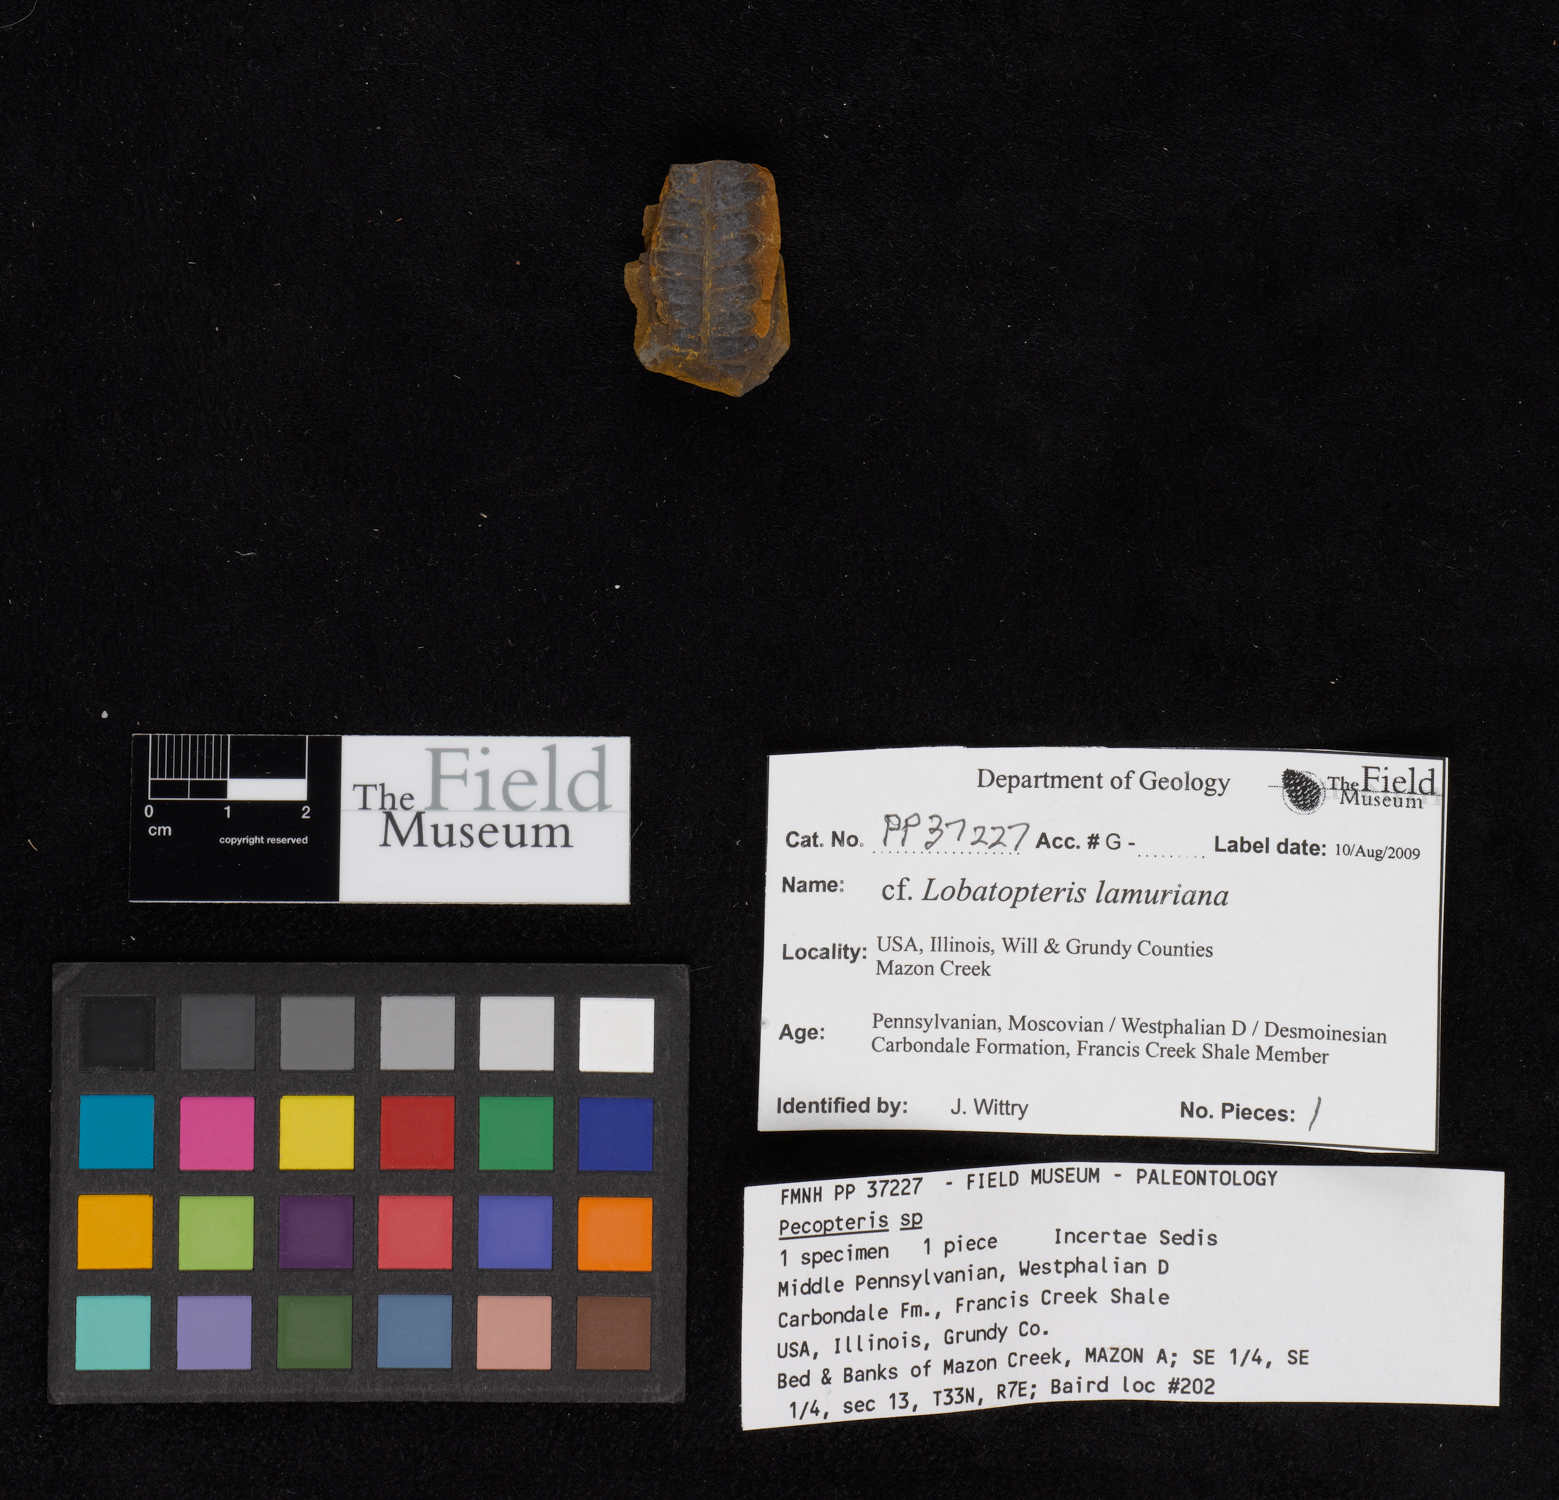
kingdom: Plantae
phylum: Tracheophyta
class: Polypodiopsida
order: Marattiales
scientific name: Marattiales
